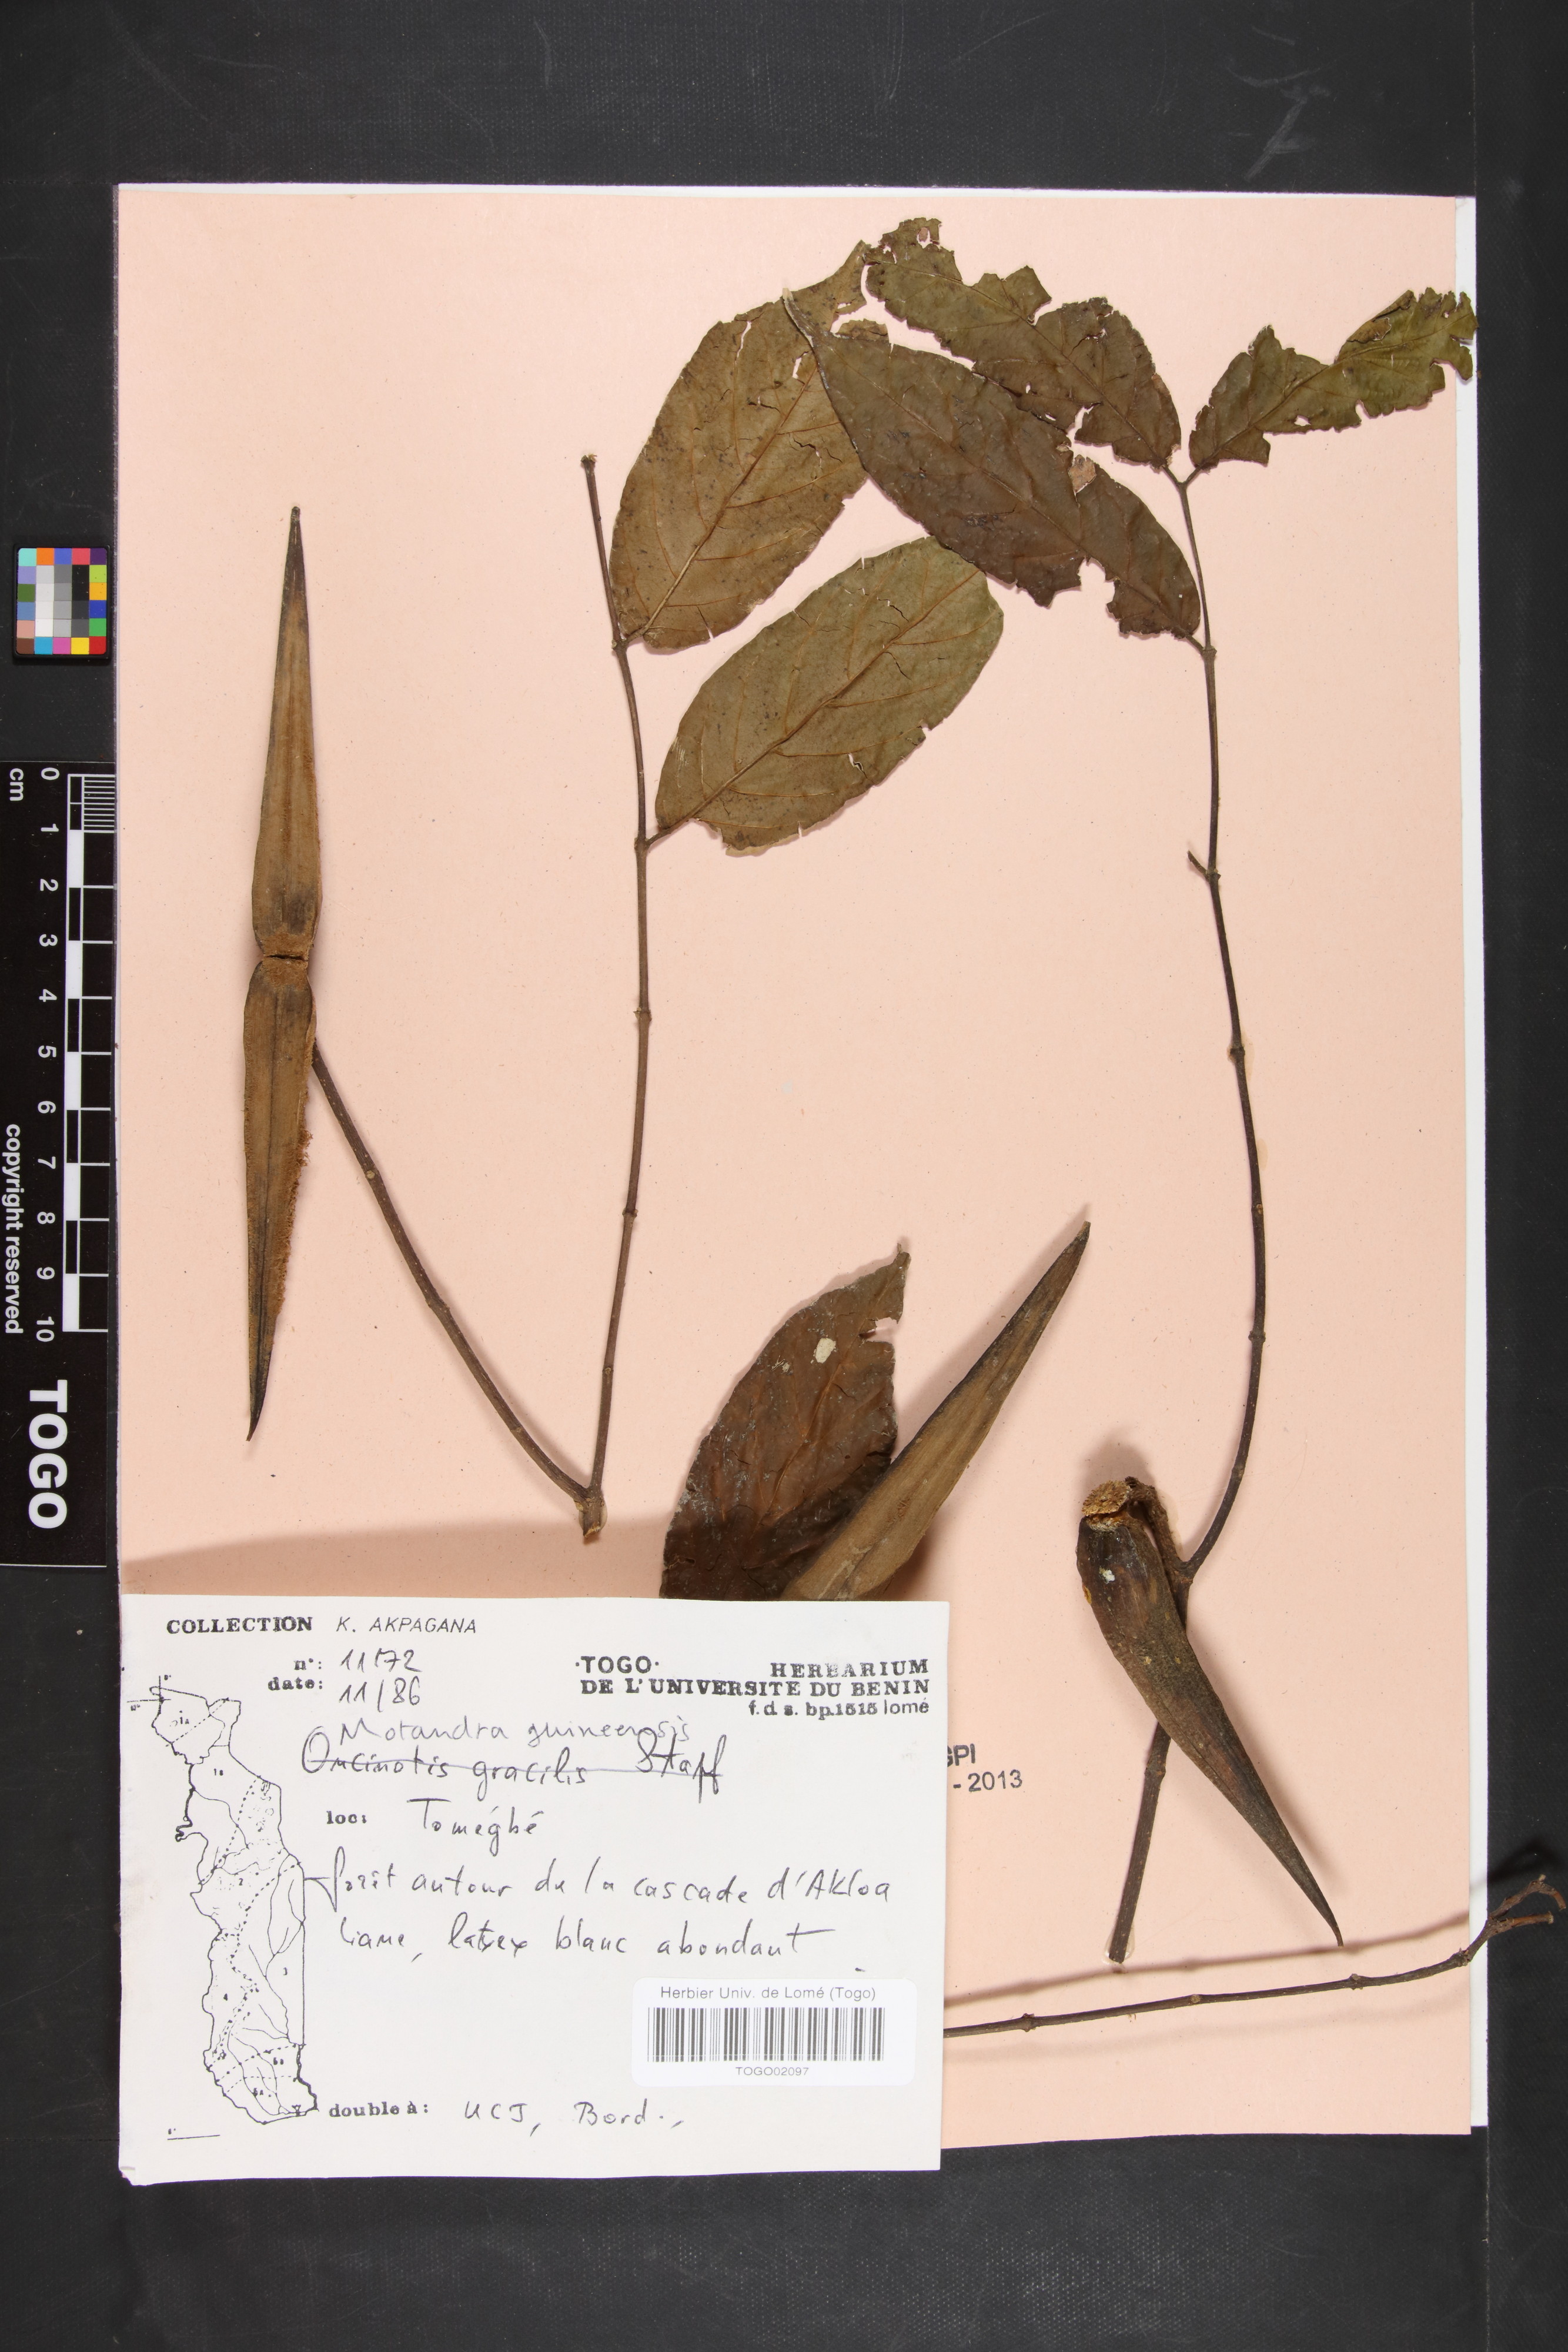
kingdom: Plantae
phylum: Tracheophyta
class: Magnoliopsida
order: Gentianales
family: Apocynaceae
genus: Motandra
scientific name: Motandra paniculata
